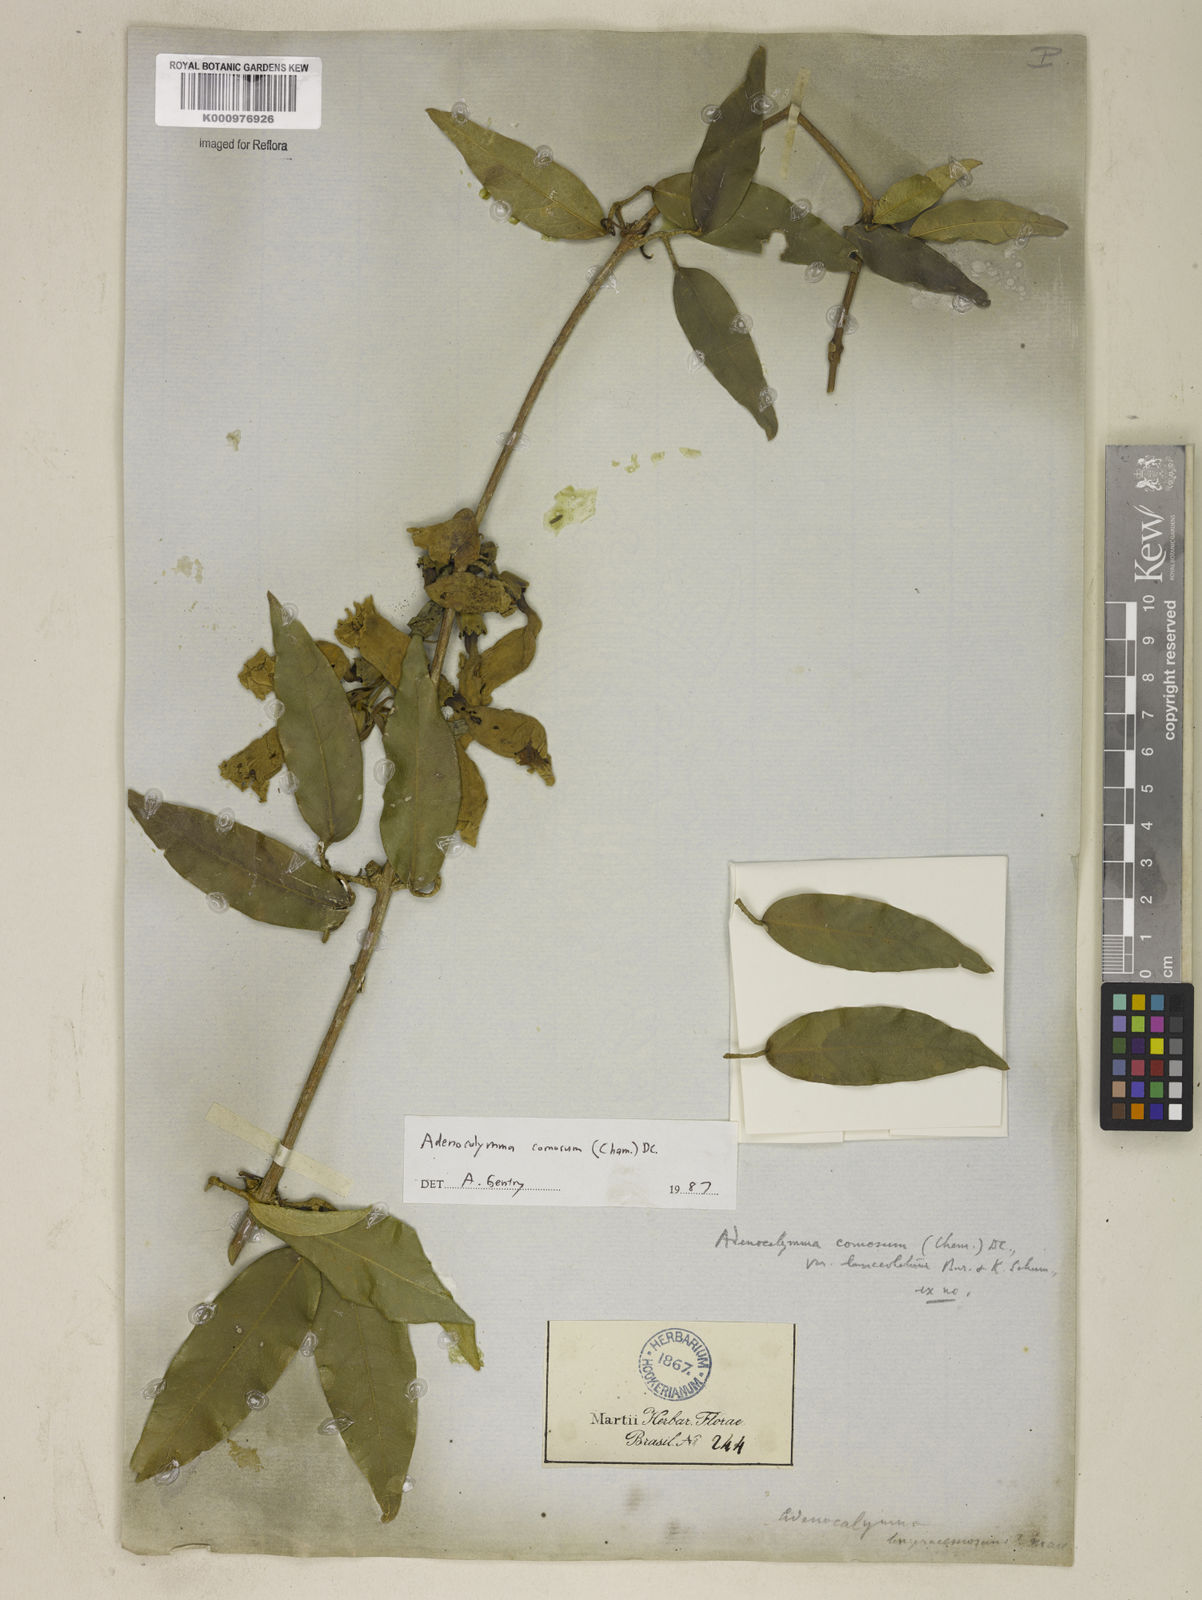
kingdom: Plantae
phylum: Tracheophyta
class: Magnoliopsida
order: Lamiales
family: Bignoniaceae
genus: Adenocalymma
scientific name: Adenocalymma acutissimum
